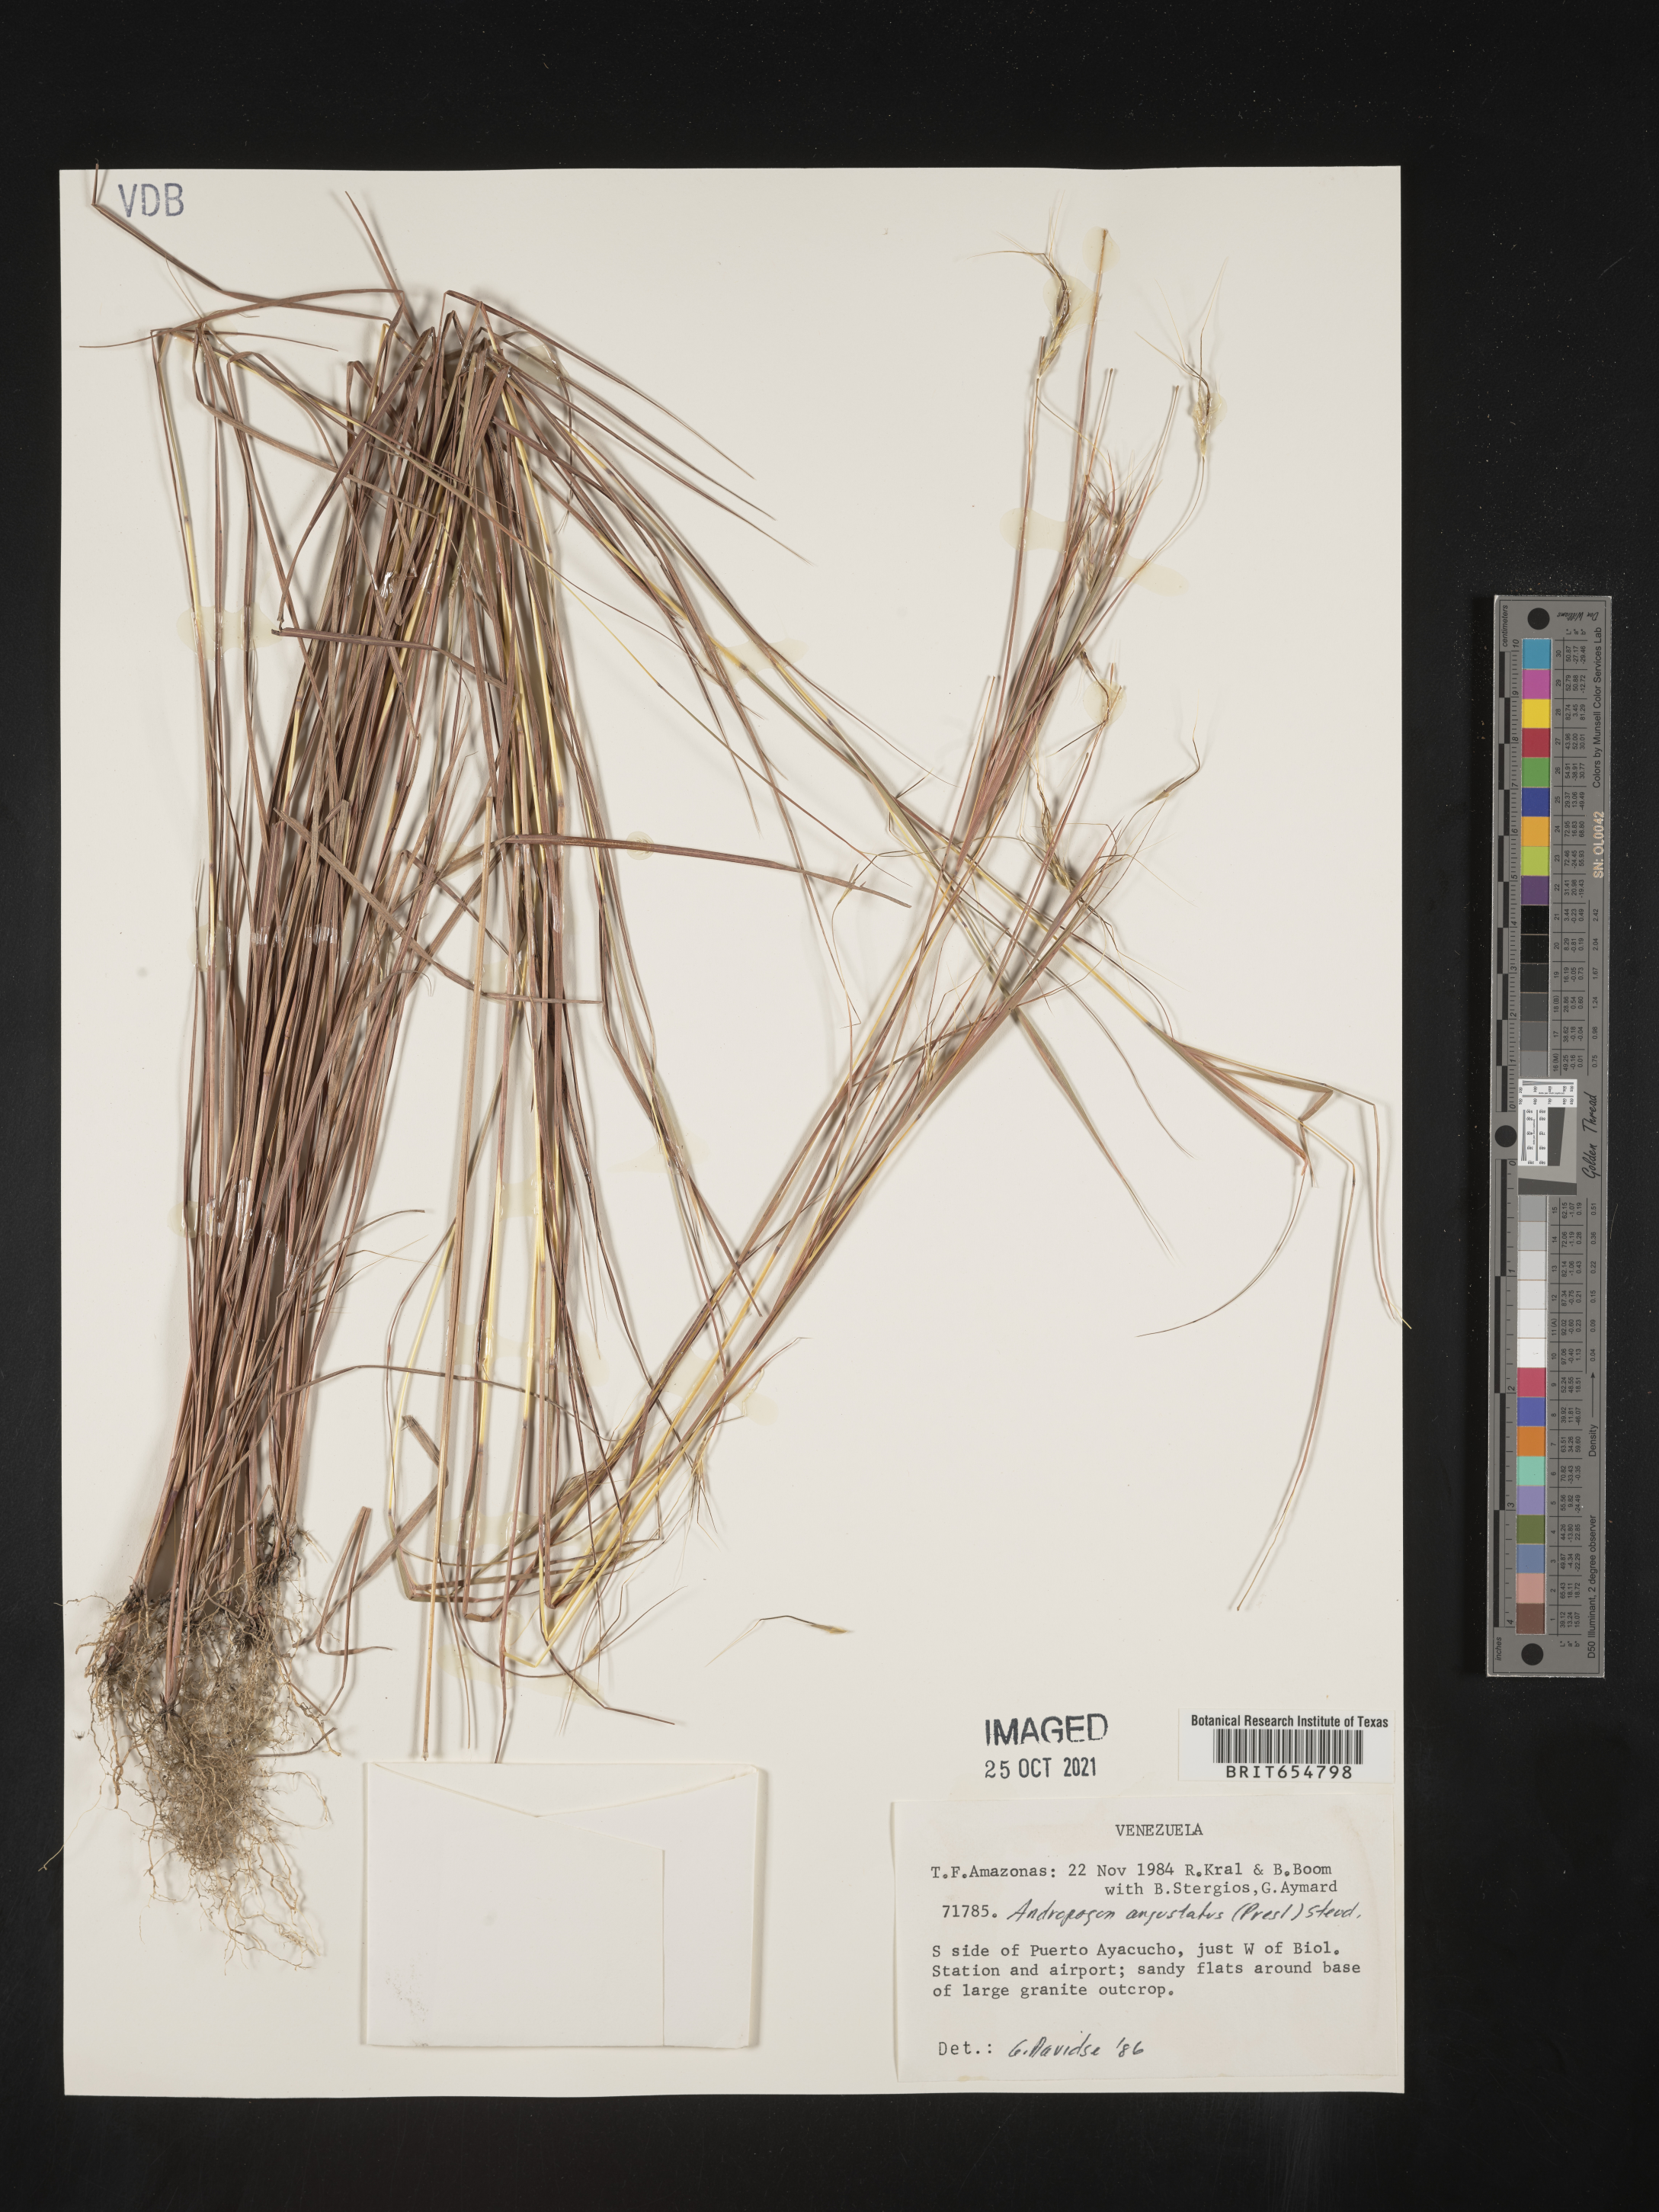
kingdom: Plantae
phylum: Tracheophyta
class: Liliopsida
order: Poales
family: Poaceae
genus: Andropogon
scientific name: Andropogon
